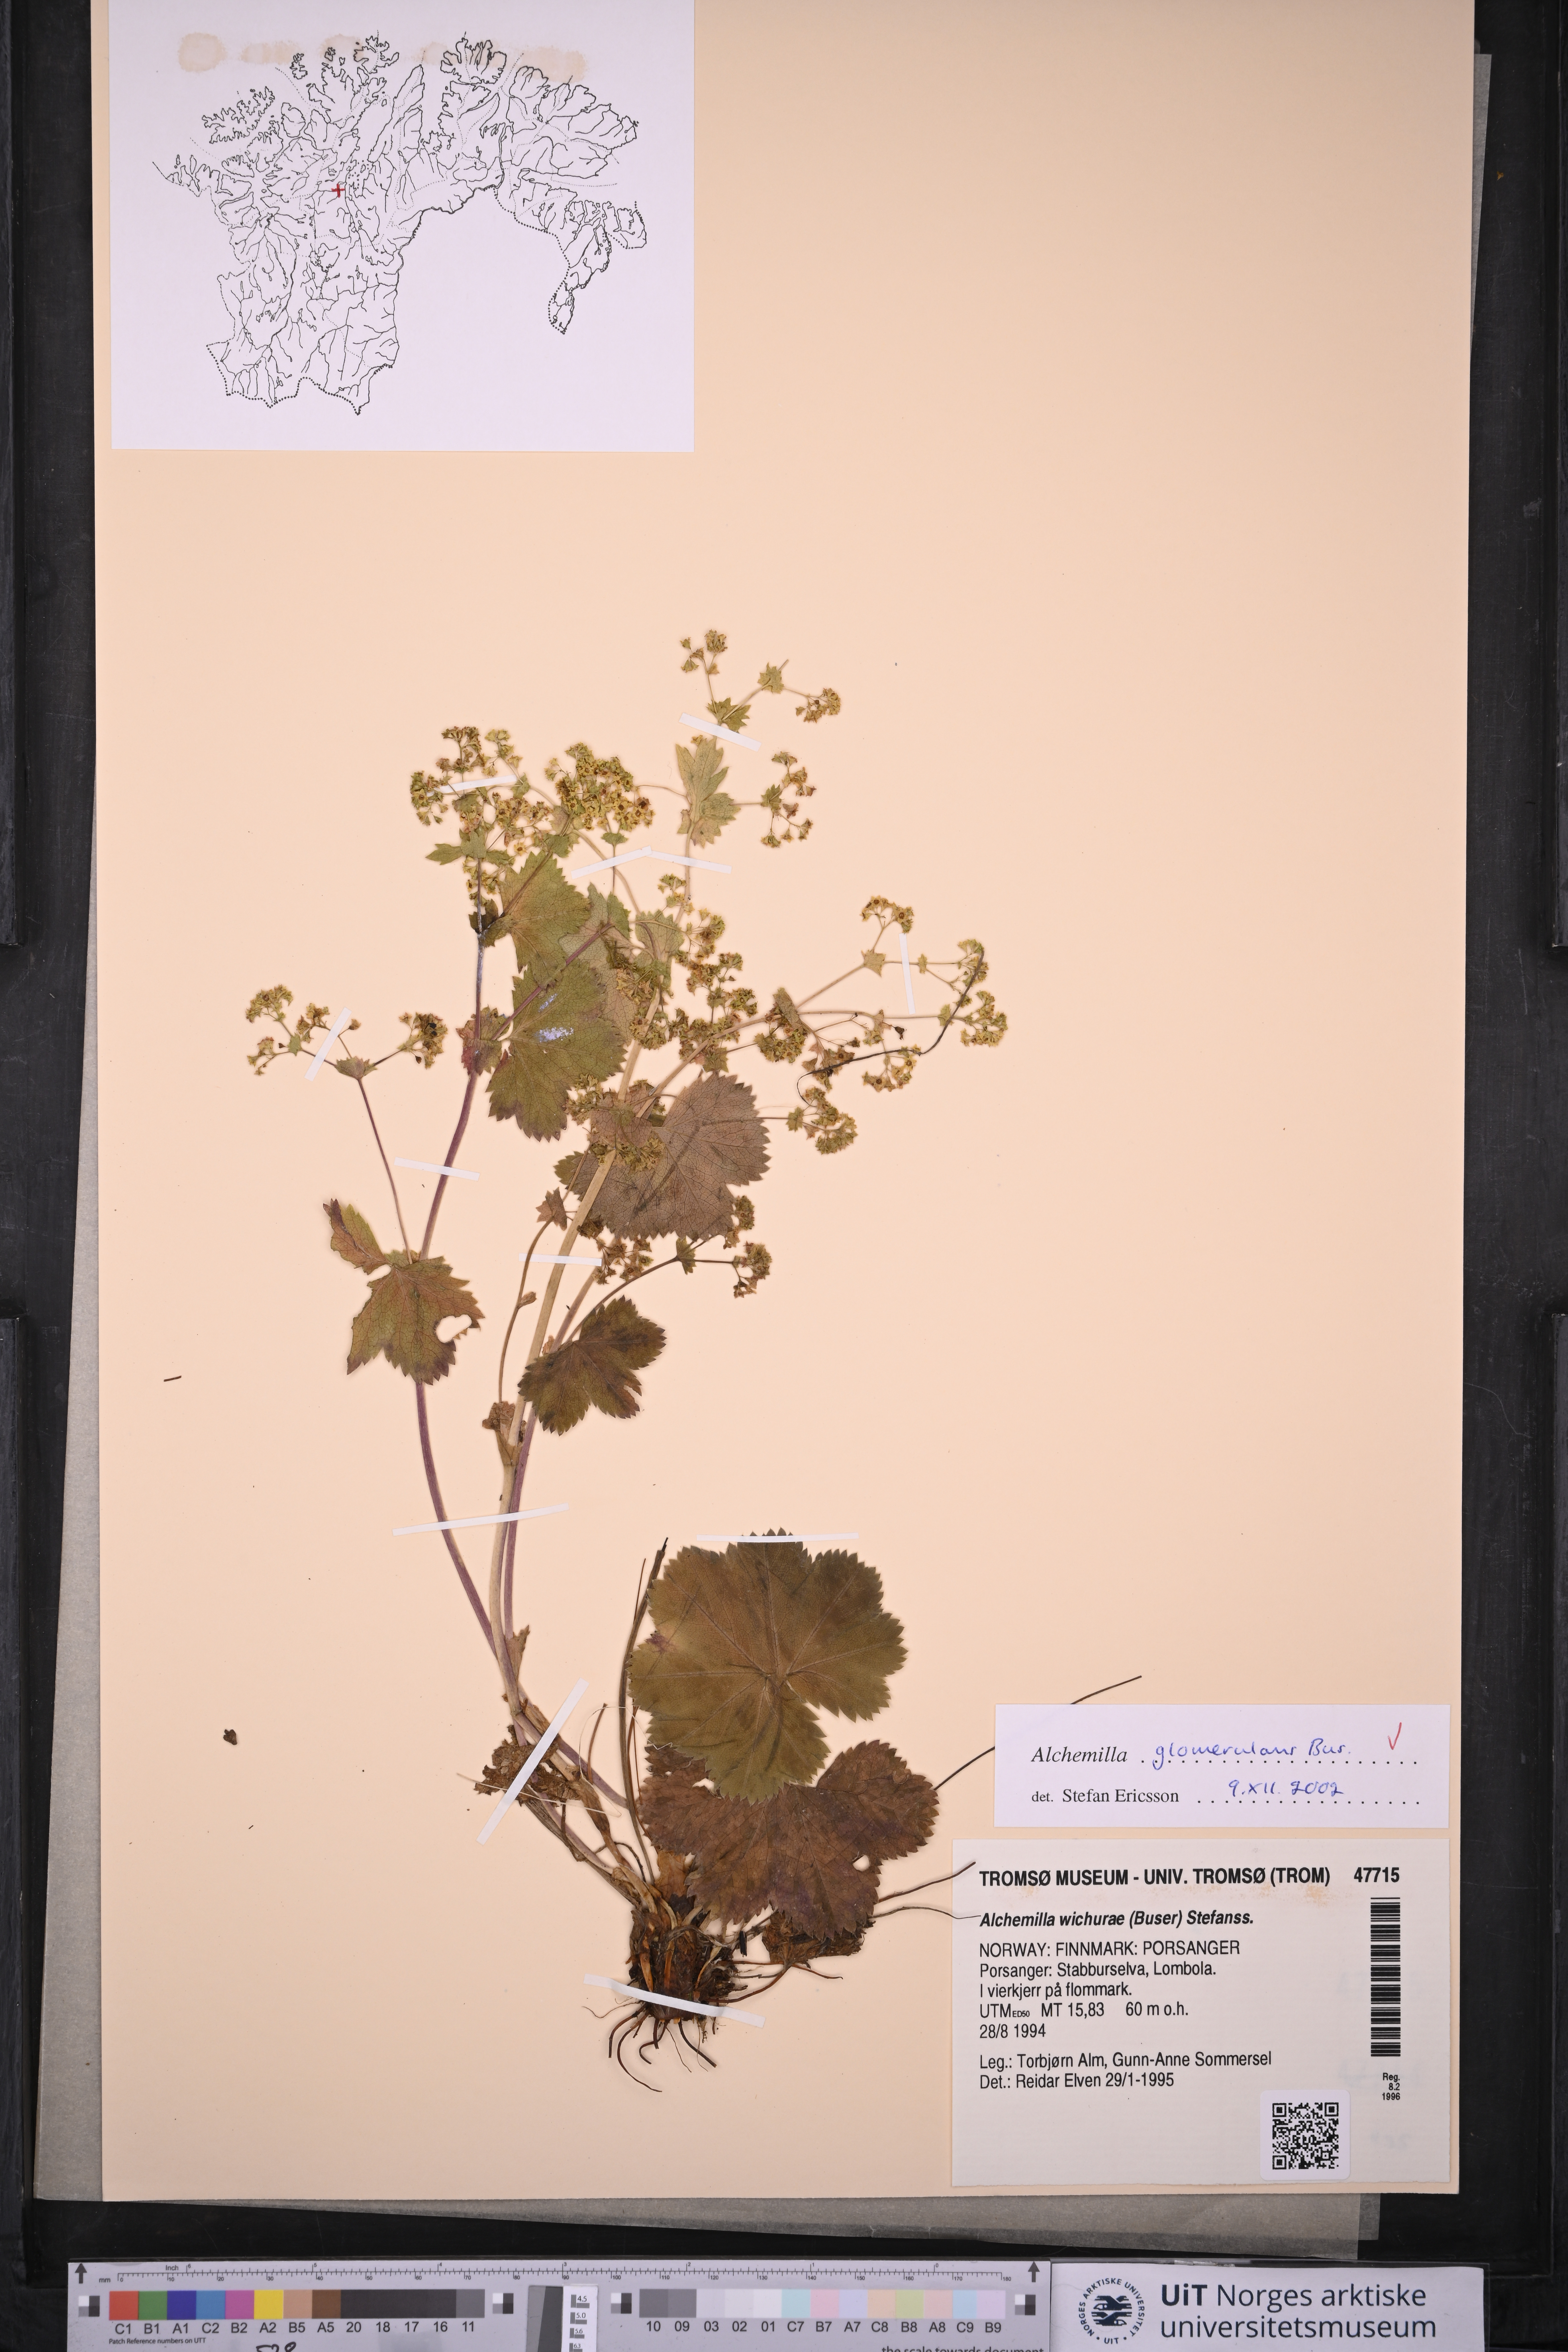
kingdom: Plantae
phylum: Tracheophyta
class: Magnoliopsida
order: Rosales
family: Rosaceae
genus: Alchemilla
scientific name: Alchemilla glomerulans
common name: Clustered lady's mantle
